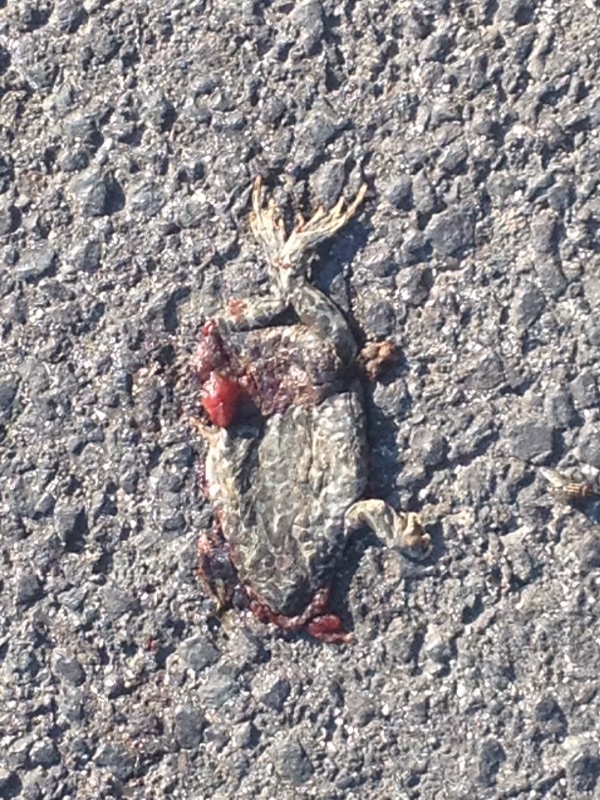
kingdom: Animalia
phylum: Chordata
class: Amphibia
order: Anura
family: Bufonidae
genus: Bufotes
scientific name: Bufotes viridis
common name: European green toad
